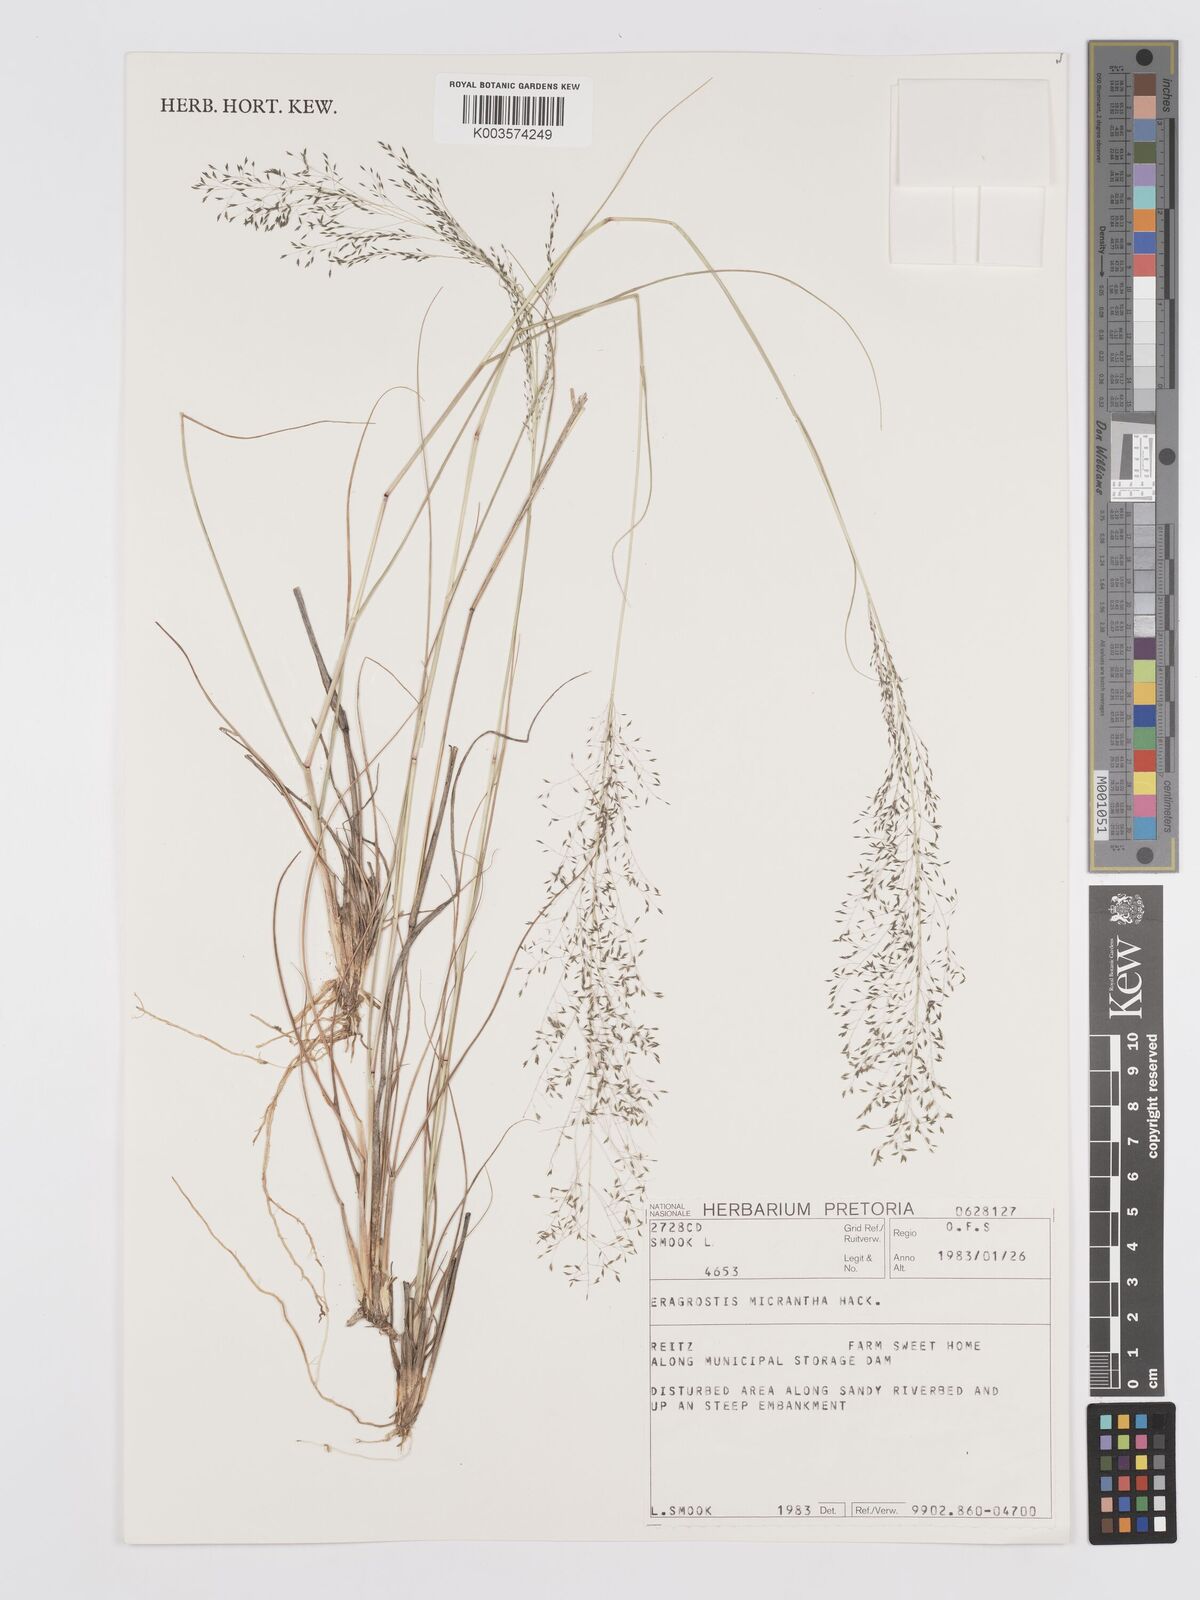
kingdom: Plantae
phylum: Tracheophyta
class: Liliopsida
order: Poales
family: Poaceae
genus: Eragrostis
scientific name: Eragrostis micrantha
